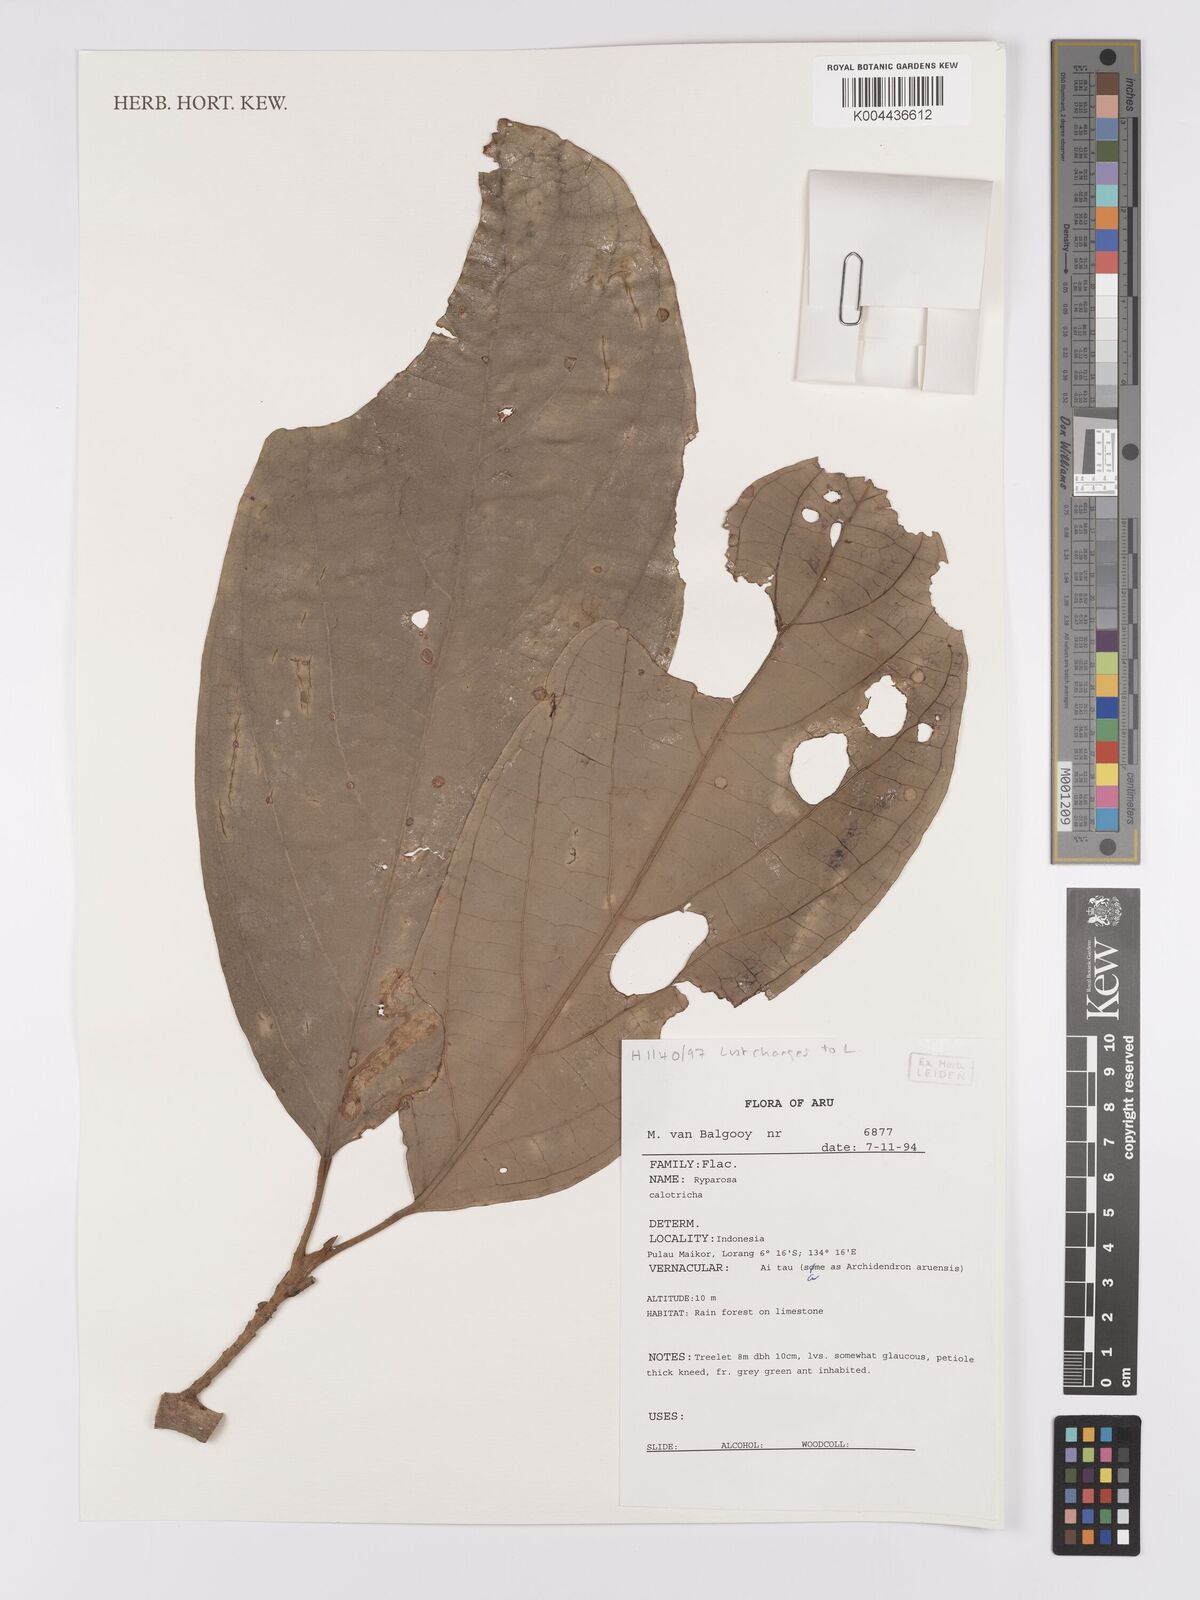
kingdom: Plantae
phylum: Tracheophyta
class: Magnoliopsida
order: Malpighiales
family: Achariaceae
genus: Ryparosa
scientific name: Ryparosa calotricha
